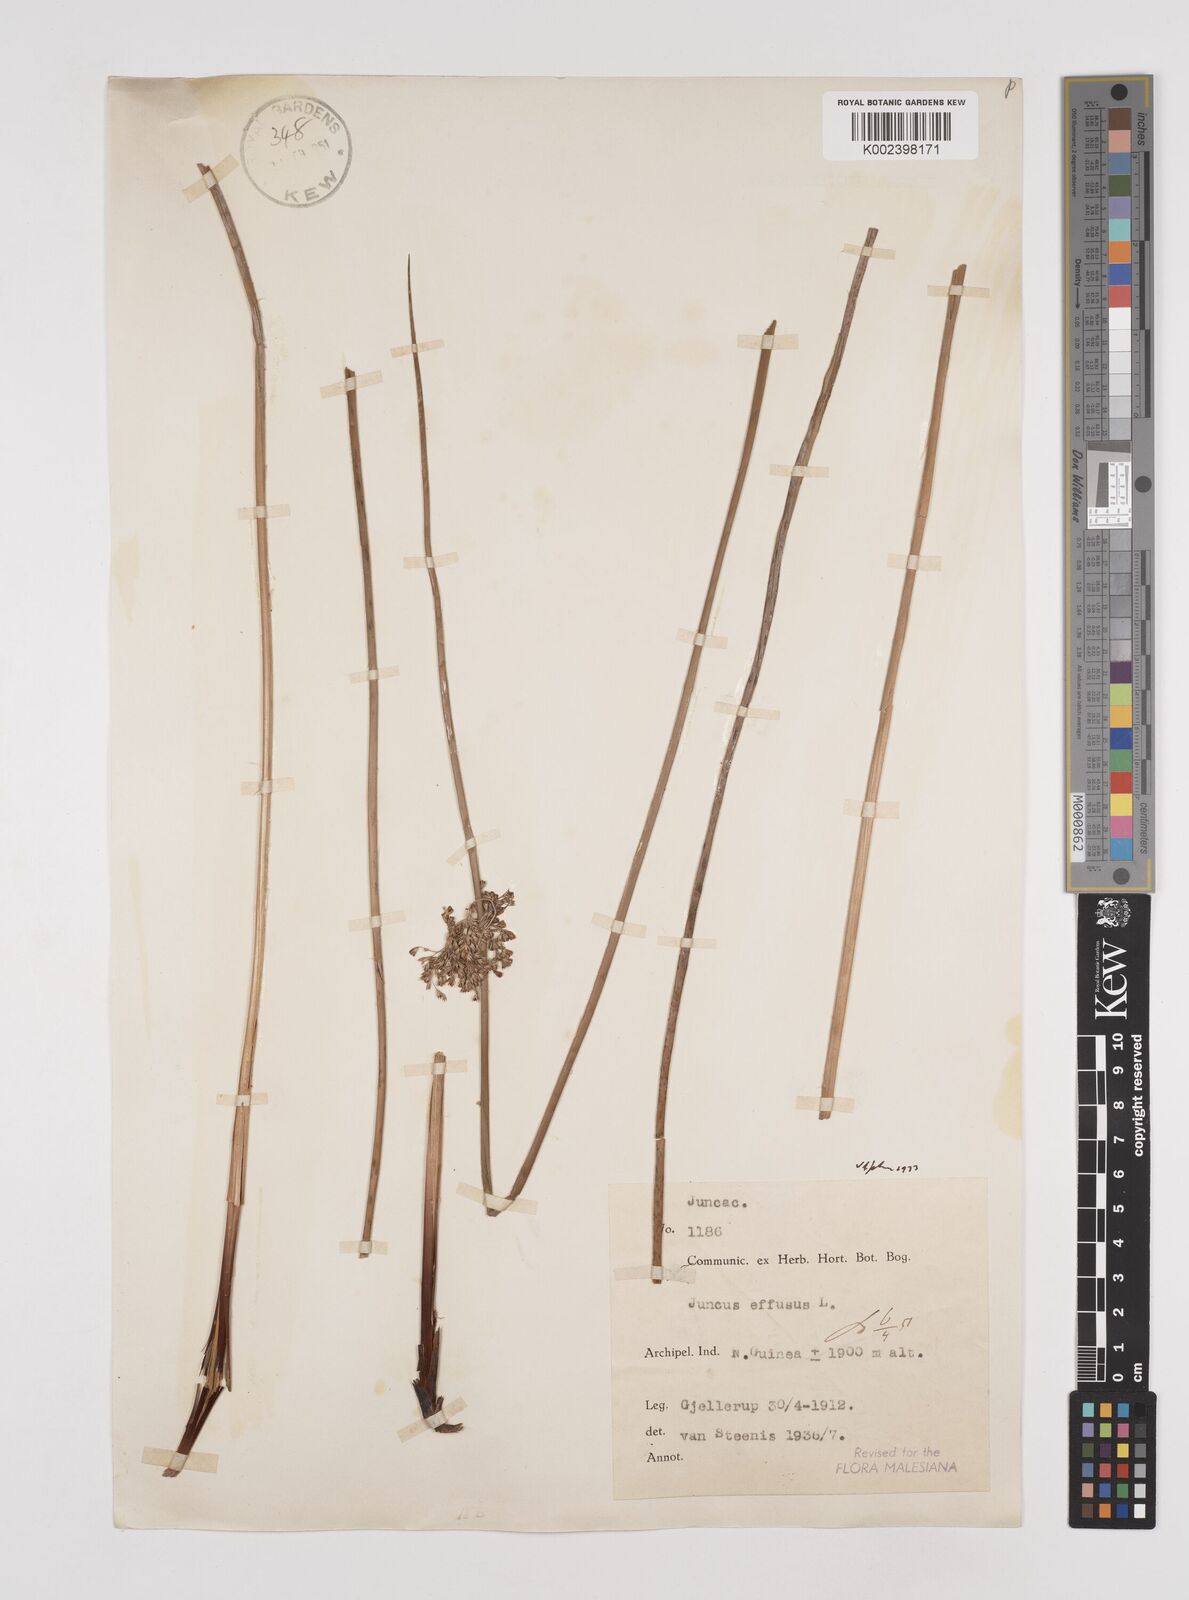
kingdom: Plantae
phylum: Tracheophyta
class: Liliopsida
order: Poales
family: Juncaceae
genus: Juncus
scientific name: Juncus effusus
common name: Soft rush
